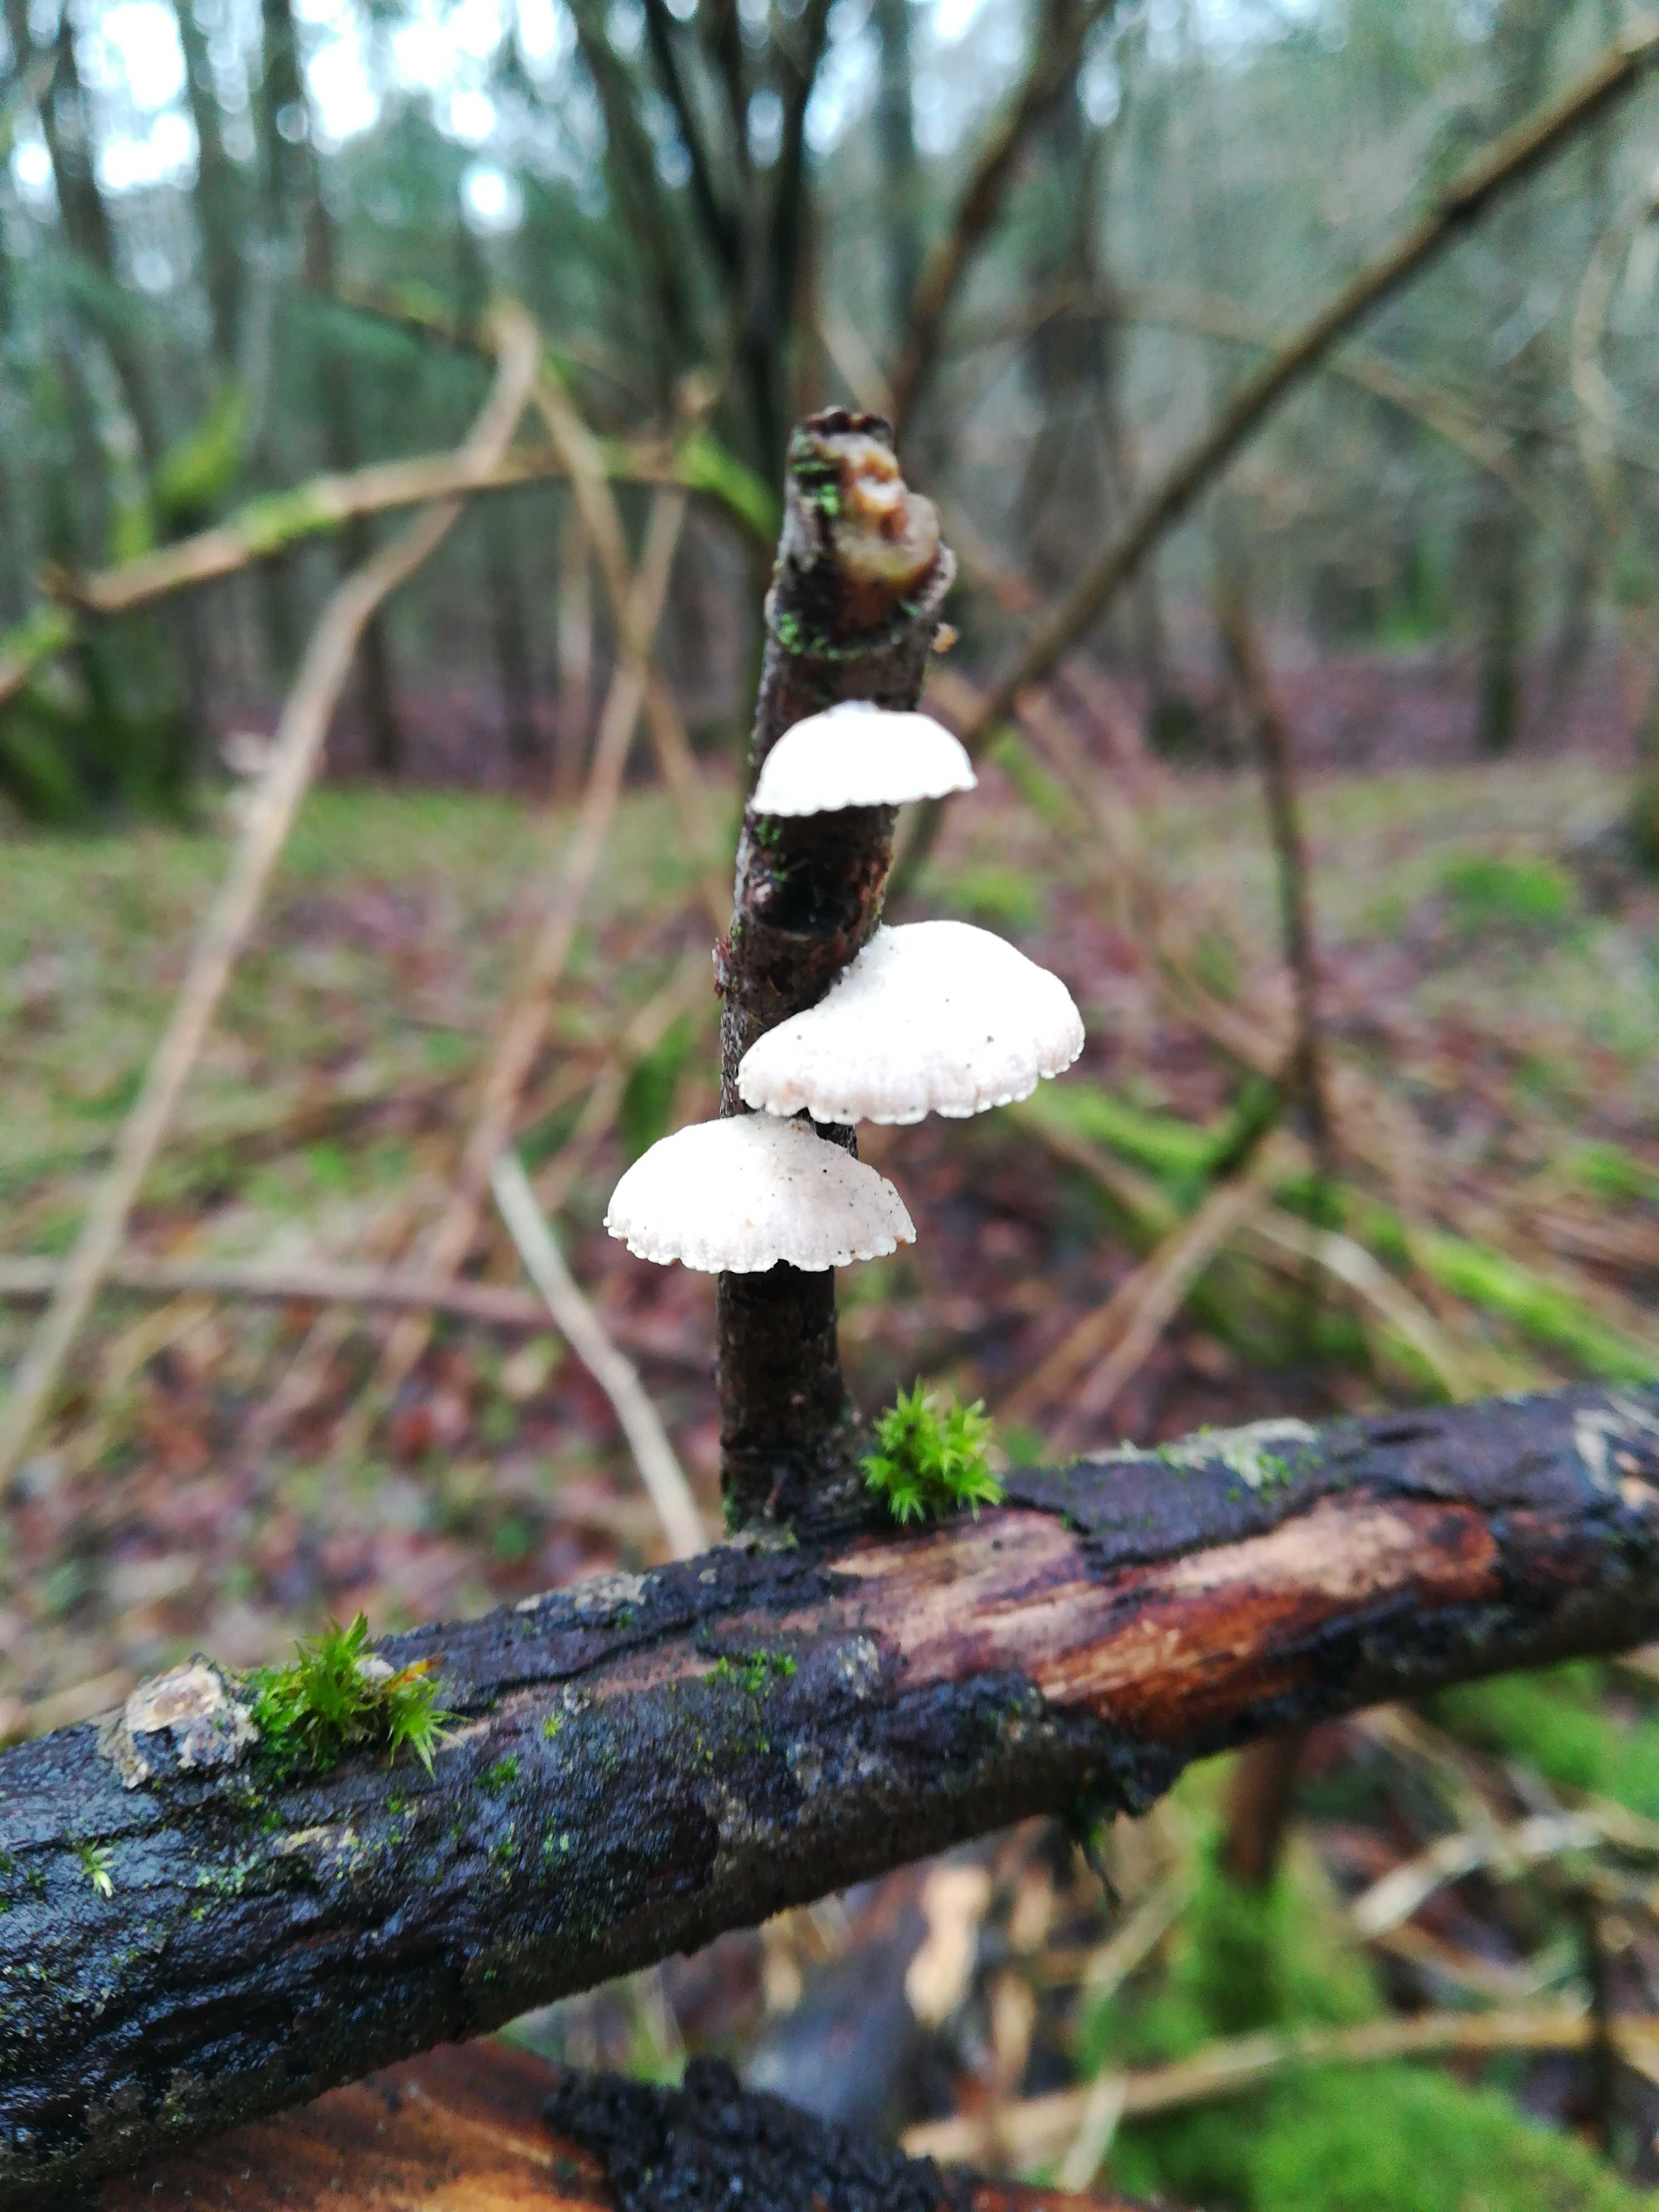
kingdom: Fungi
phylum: Basidiomycota
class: Agaricomycetes
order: Agaricales
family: Crepidotaceae
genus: Crepidotus
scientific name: Crepidotus
